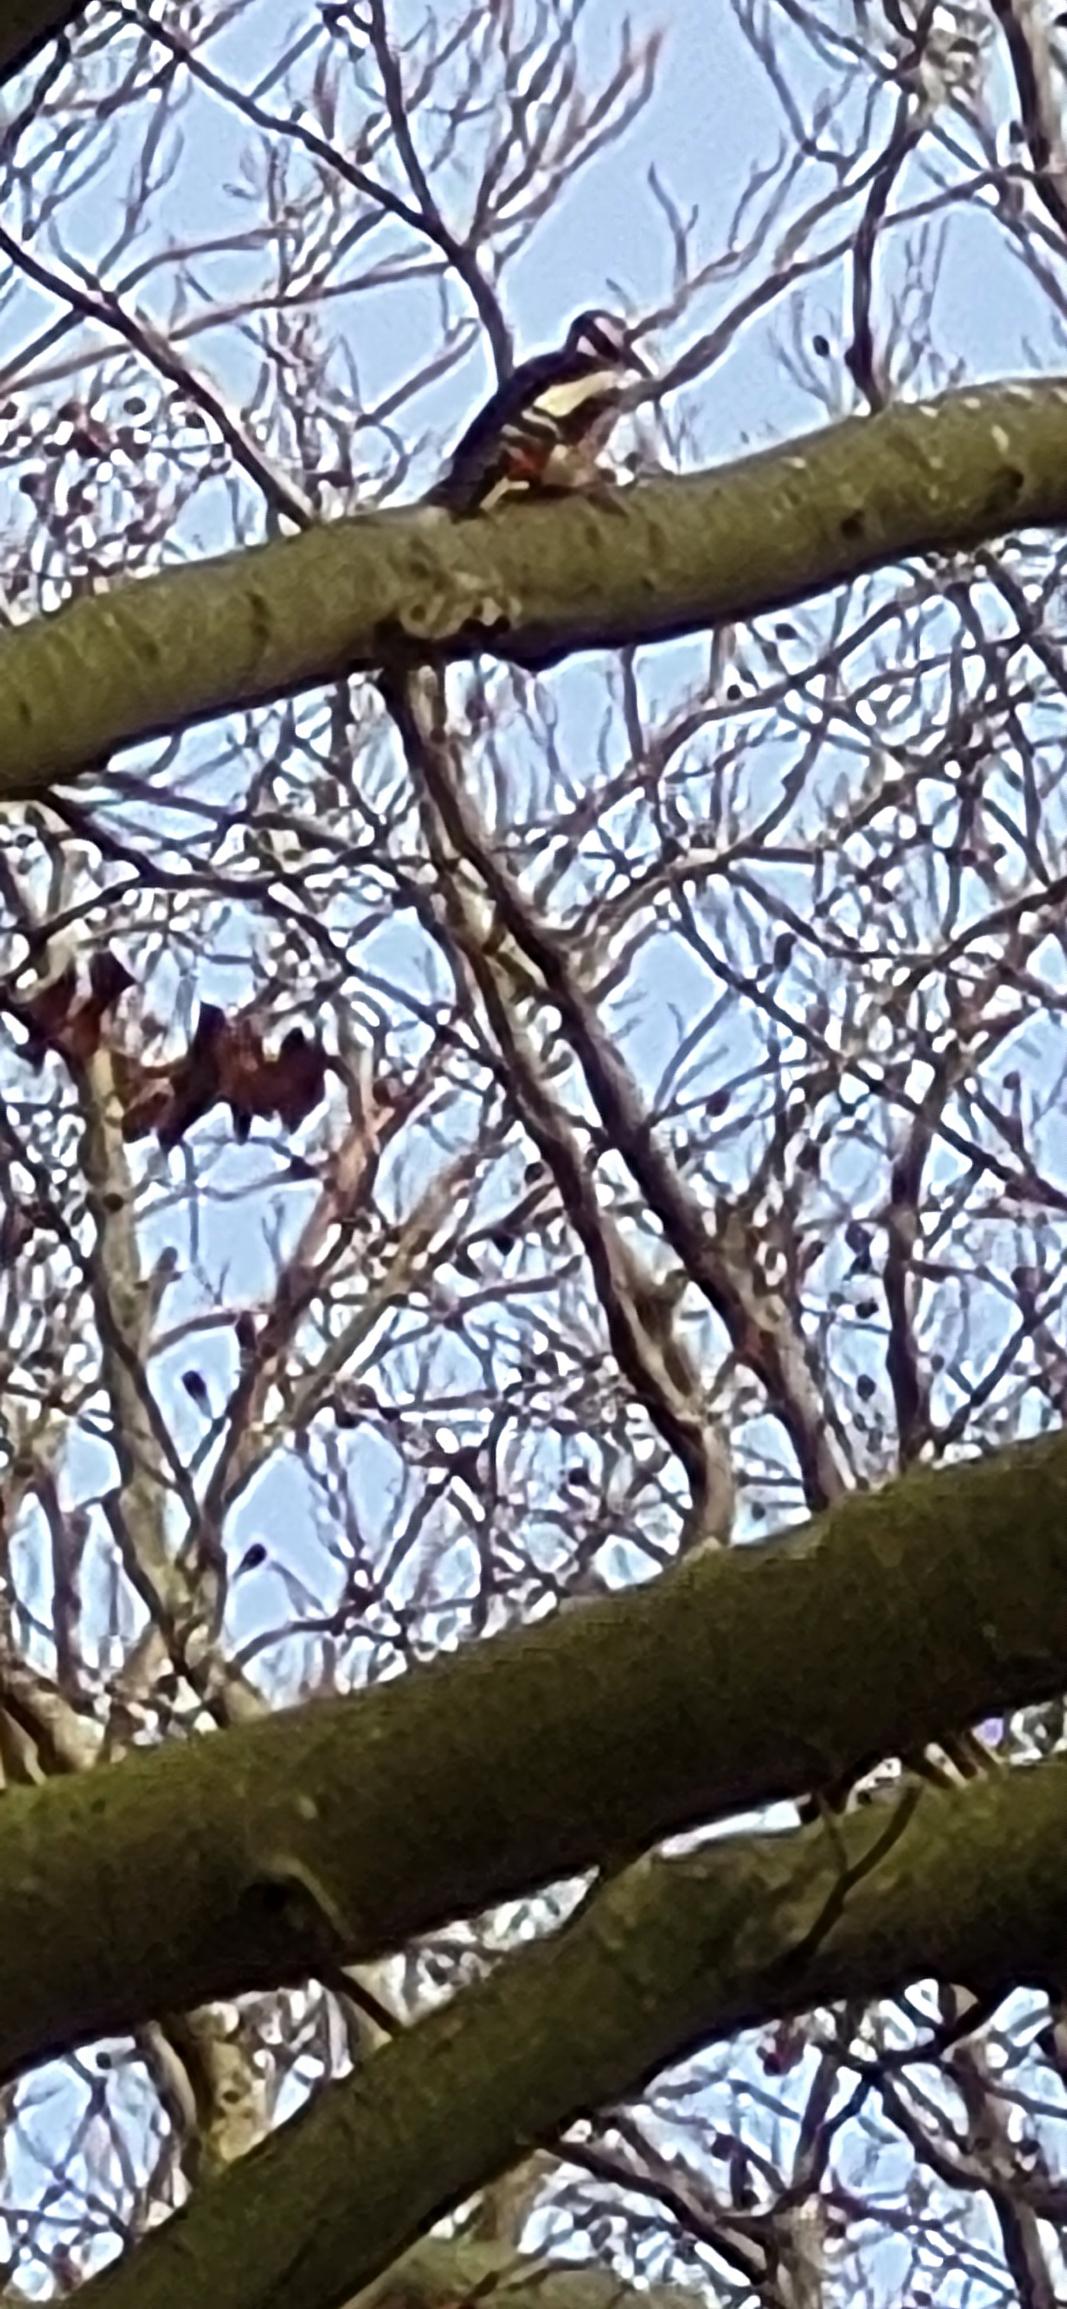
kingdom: Animalia
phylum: Chordata
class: Aves
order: Piciformes
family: Picidae
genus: Dendrocopos
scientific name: Dendrocopos major
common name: Stor flagspætte
